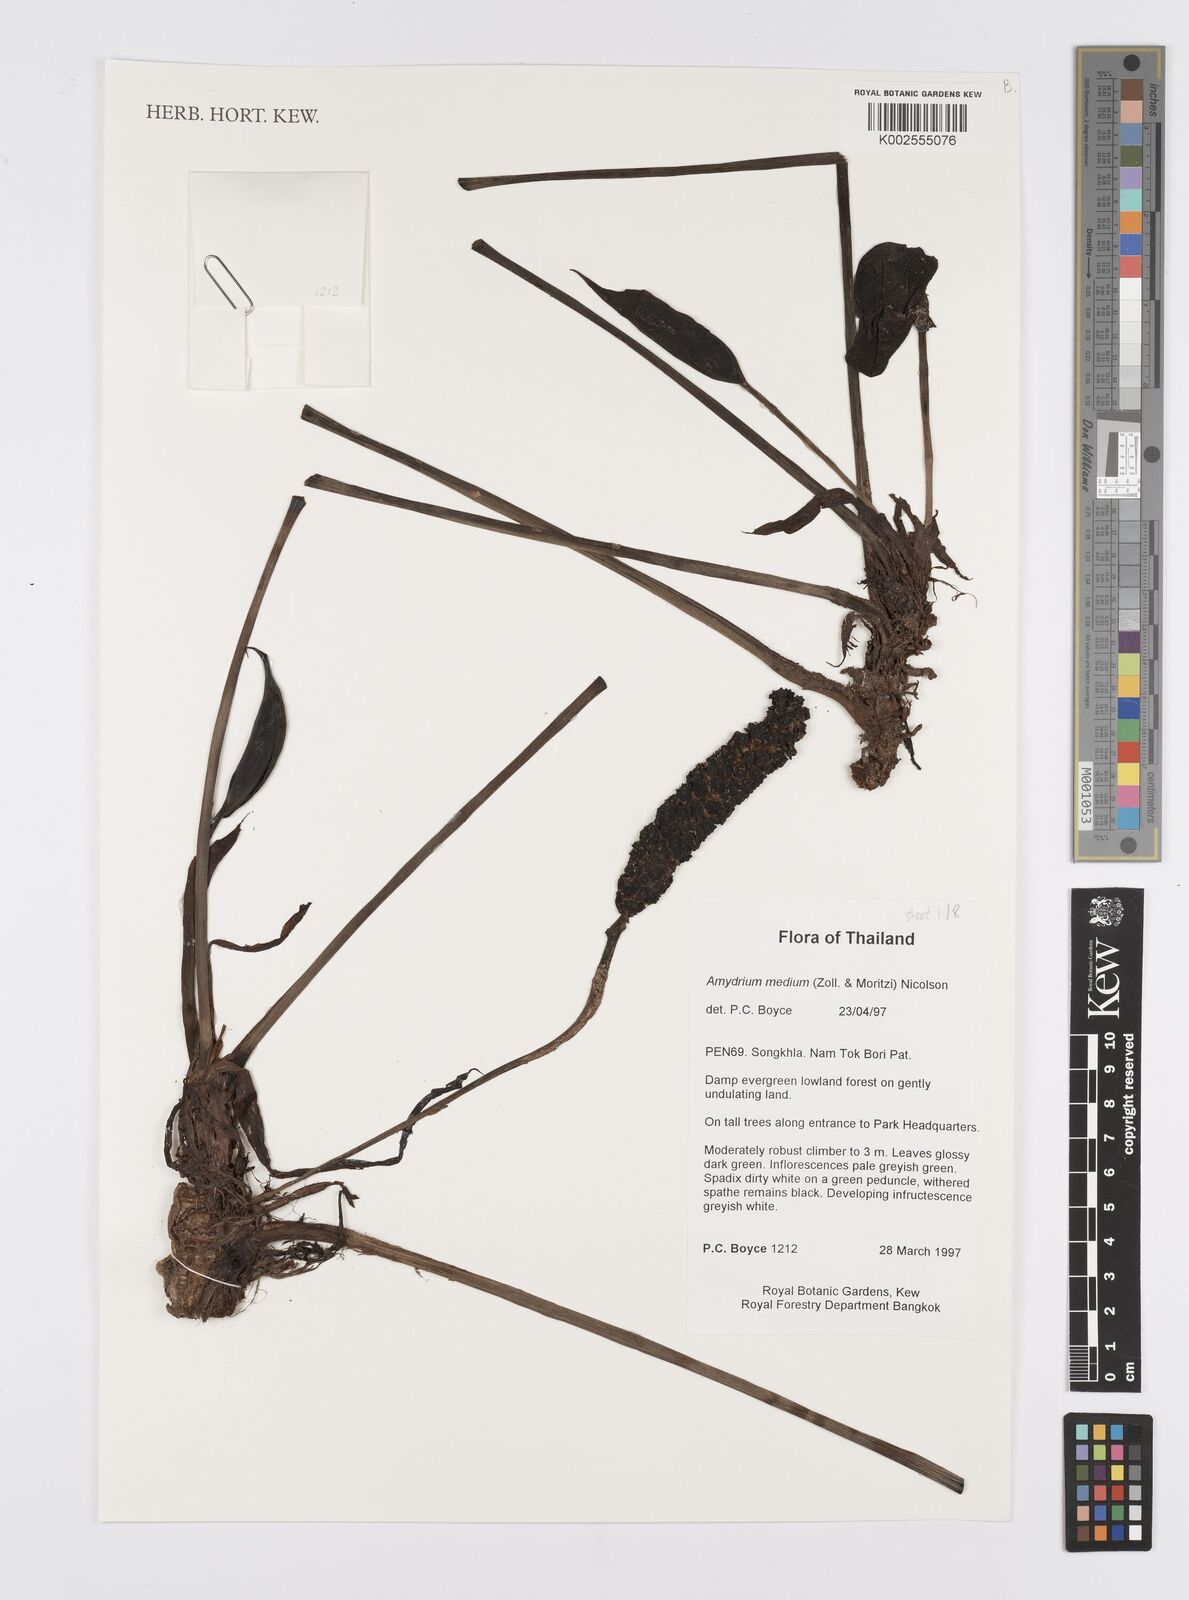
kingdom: Plantae
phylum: Tracheophyta
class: Liliopsida
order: Alismatales
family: Araceae
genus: Amydrium
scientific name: Amydrium medium
